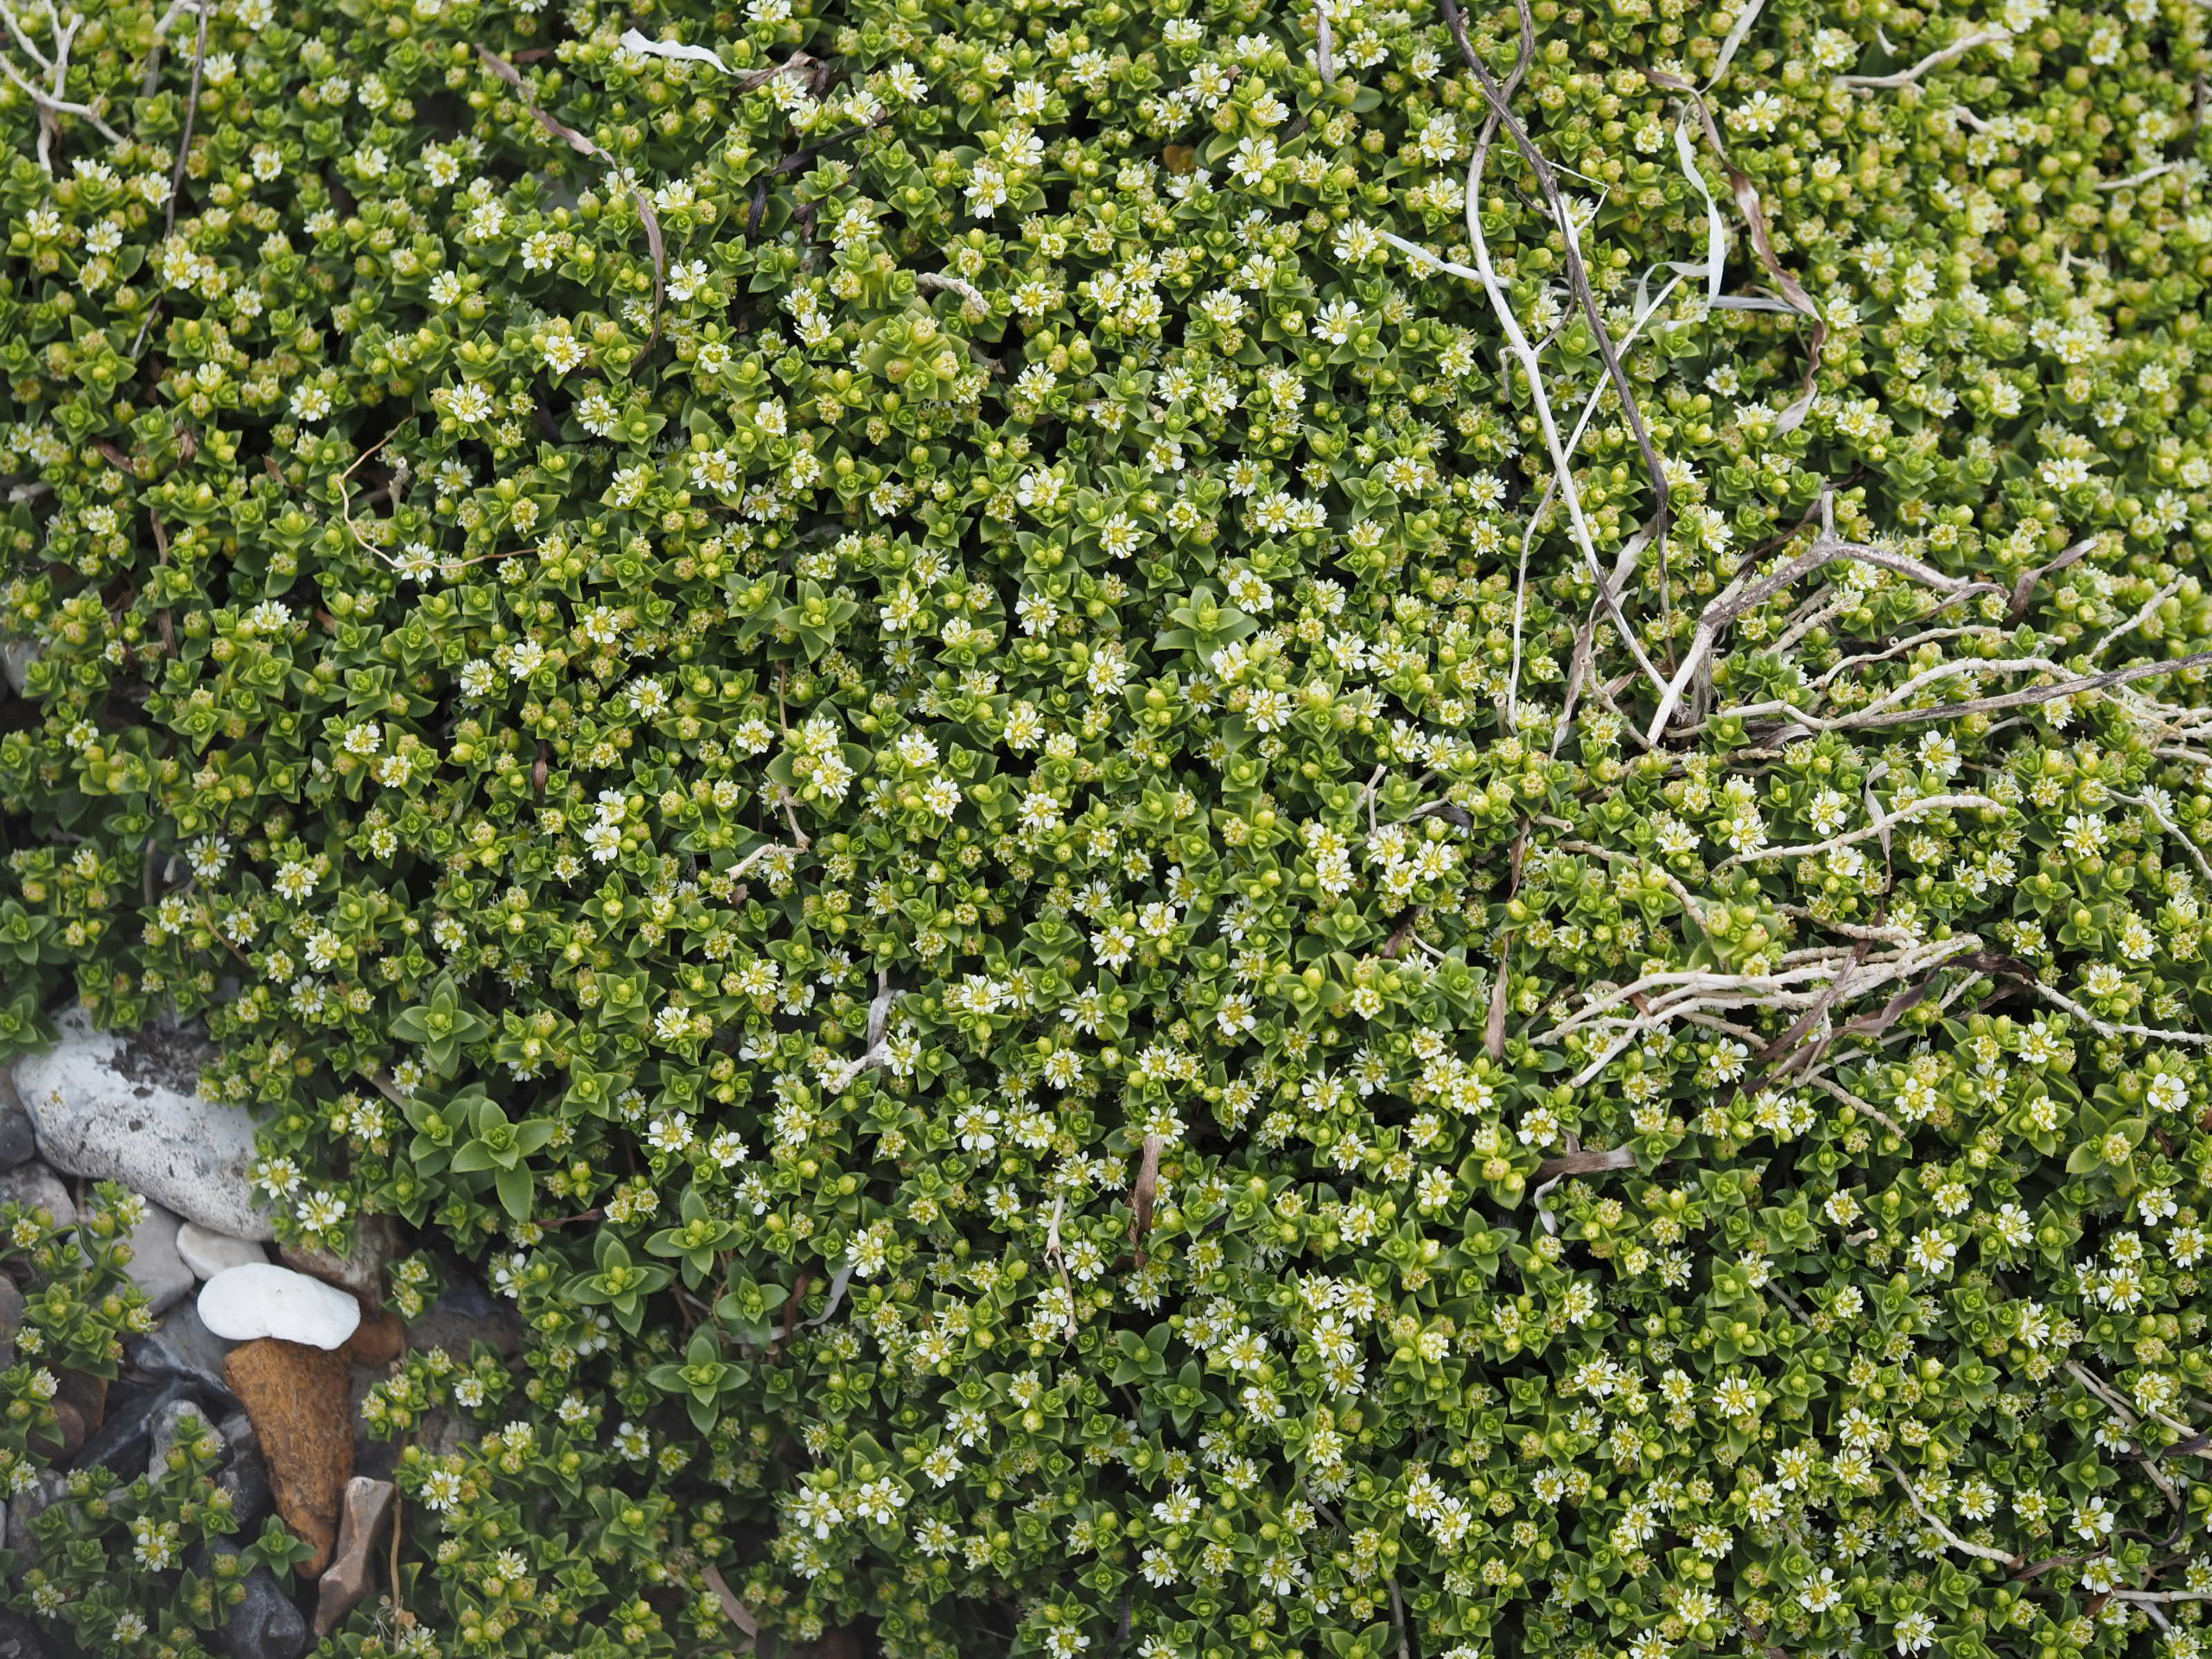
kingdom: Plantae
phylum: Tracheophyta
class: Magnoliopsida
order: Caryophyllales
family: Caryophyllaceae
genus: Honckenya
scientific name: Honckenya peploides
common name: Strandarve
